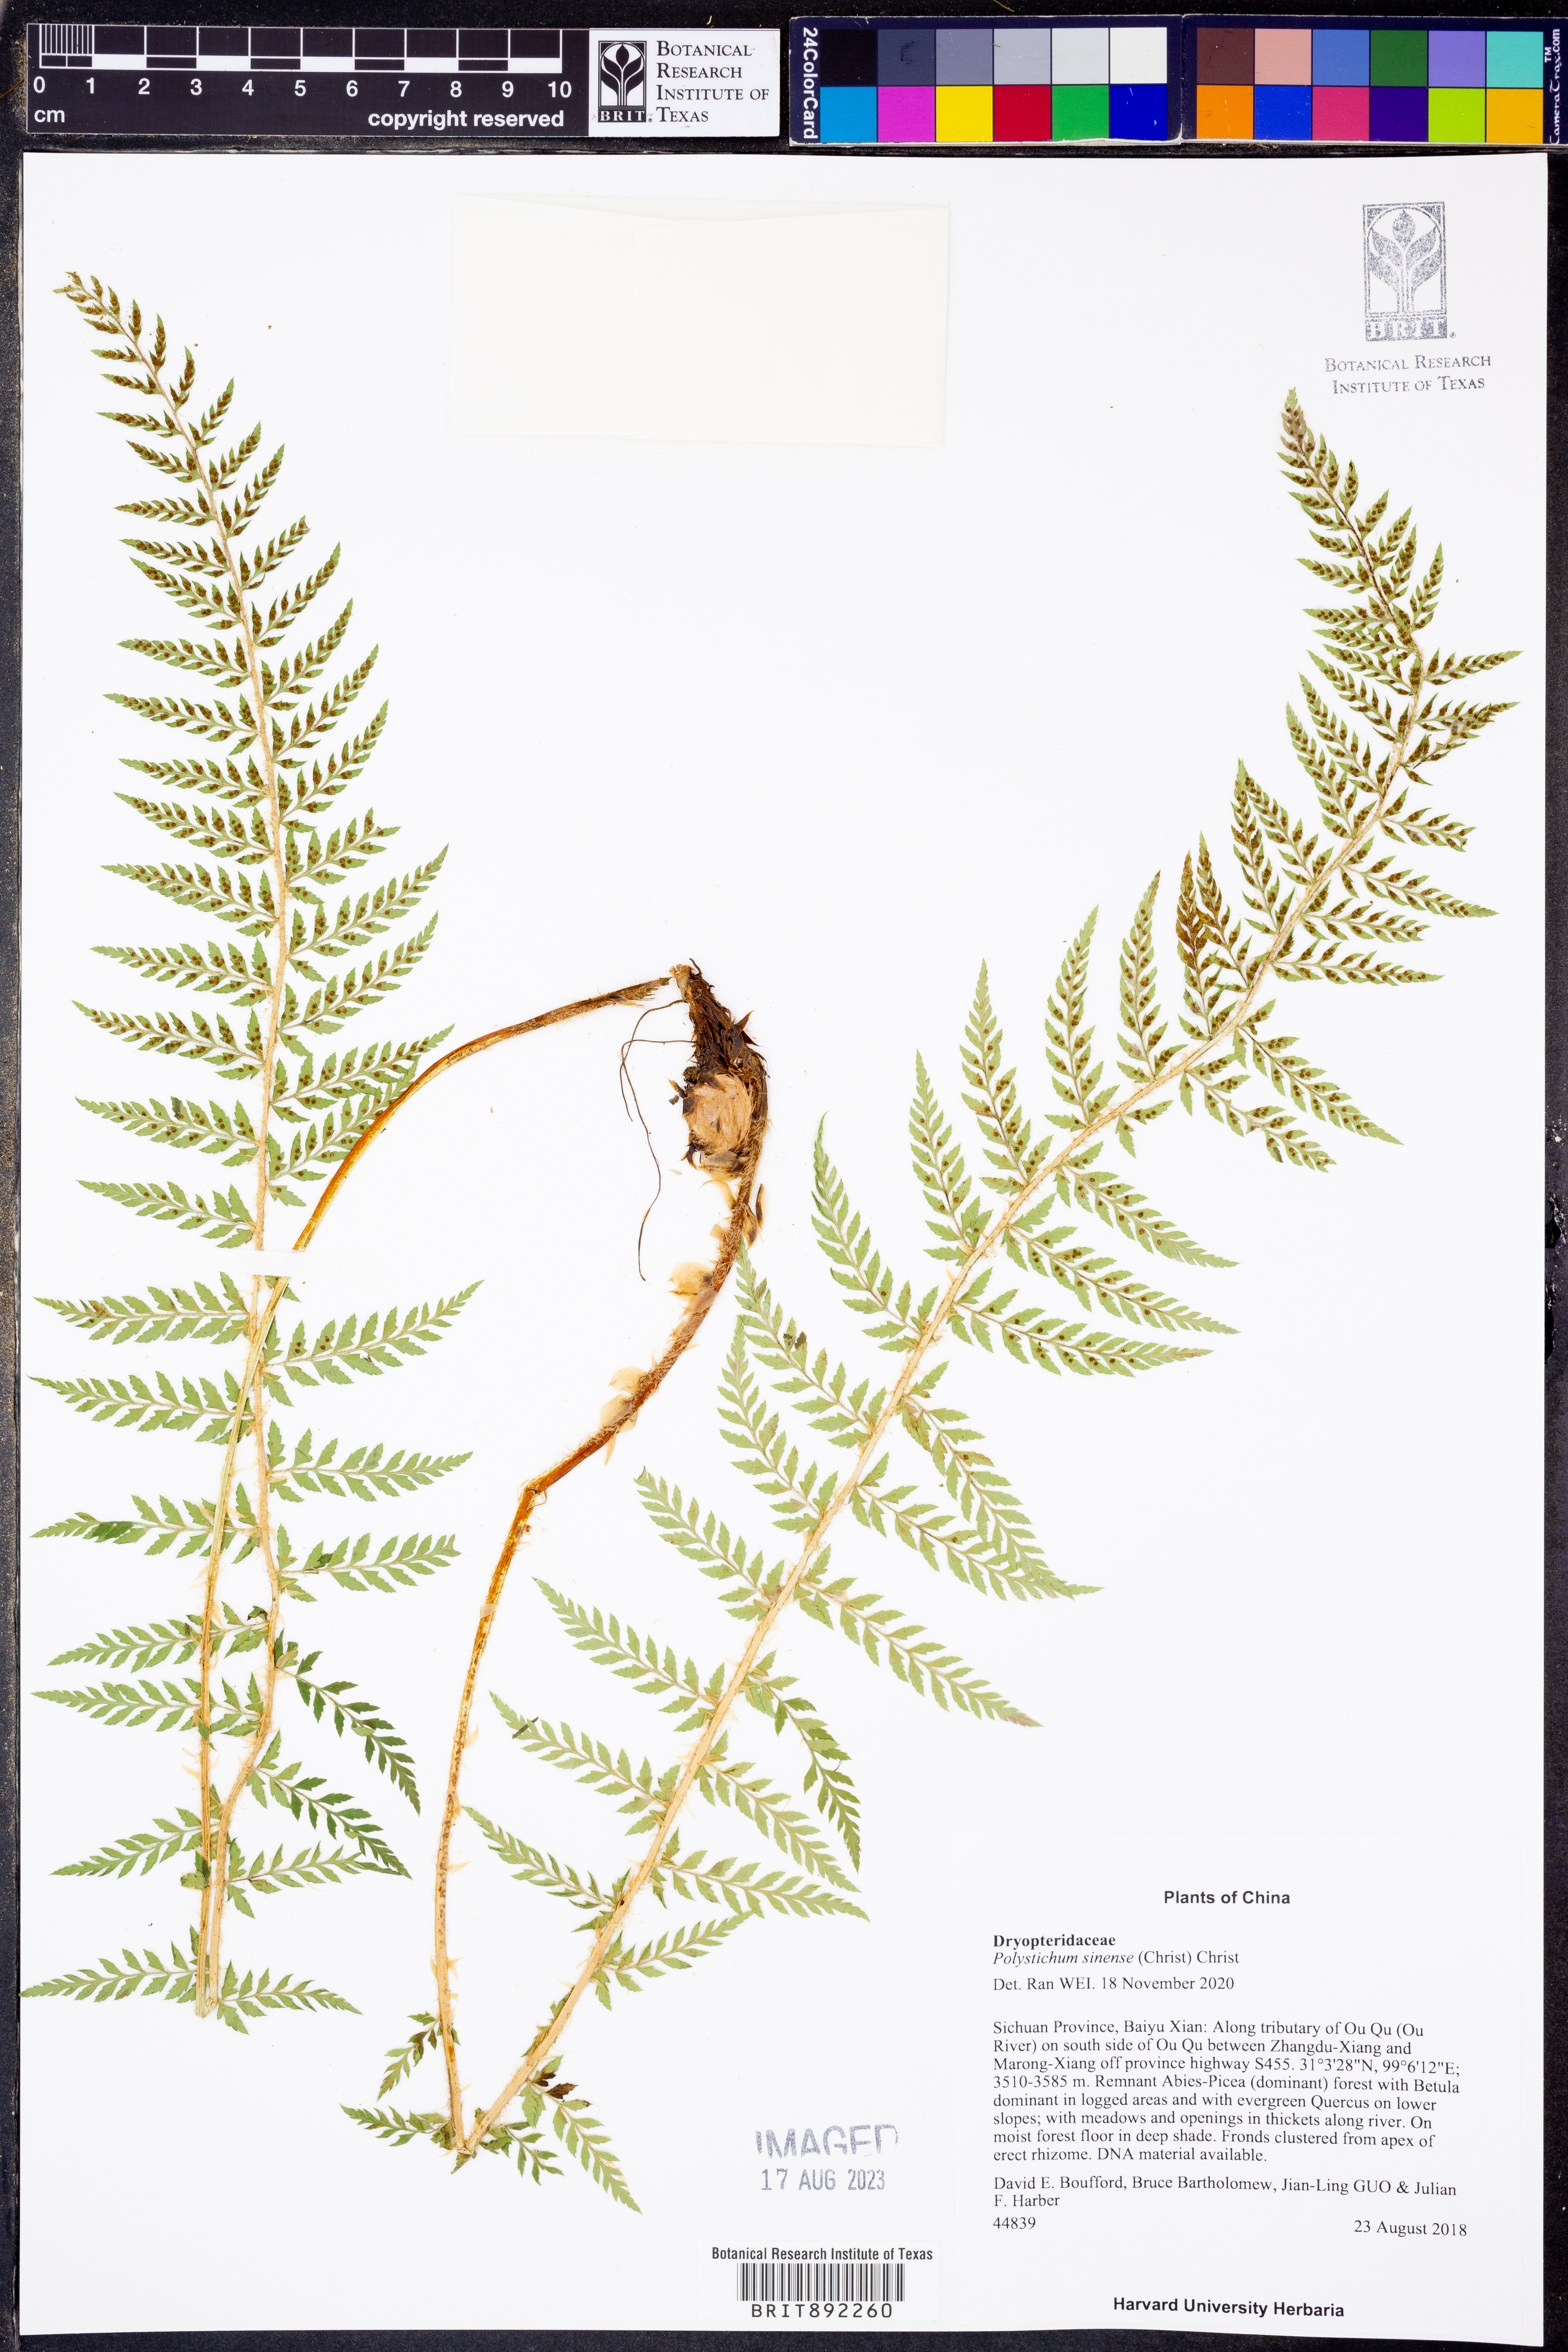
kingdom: Plantae
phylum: Tracheophyta
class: Polypodiopsida
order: Polypodiales
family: Dryopteridaceae
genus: Polystichum
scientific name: Polystichum sinense
